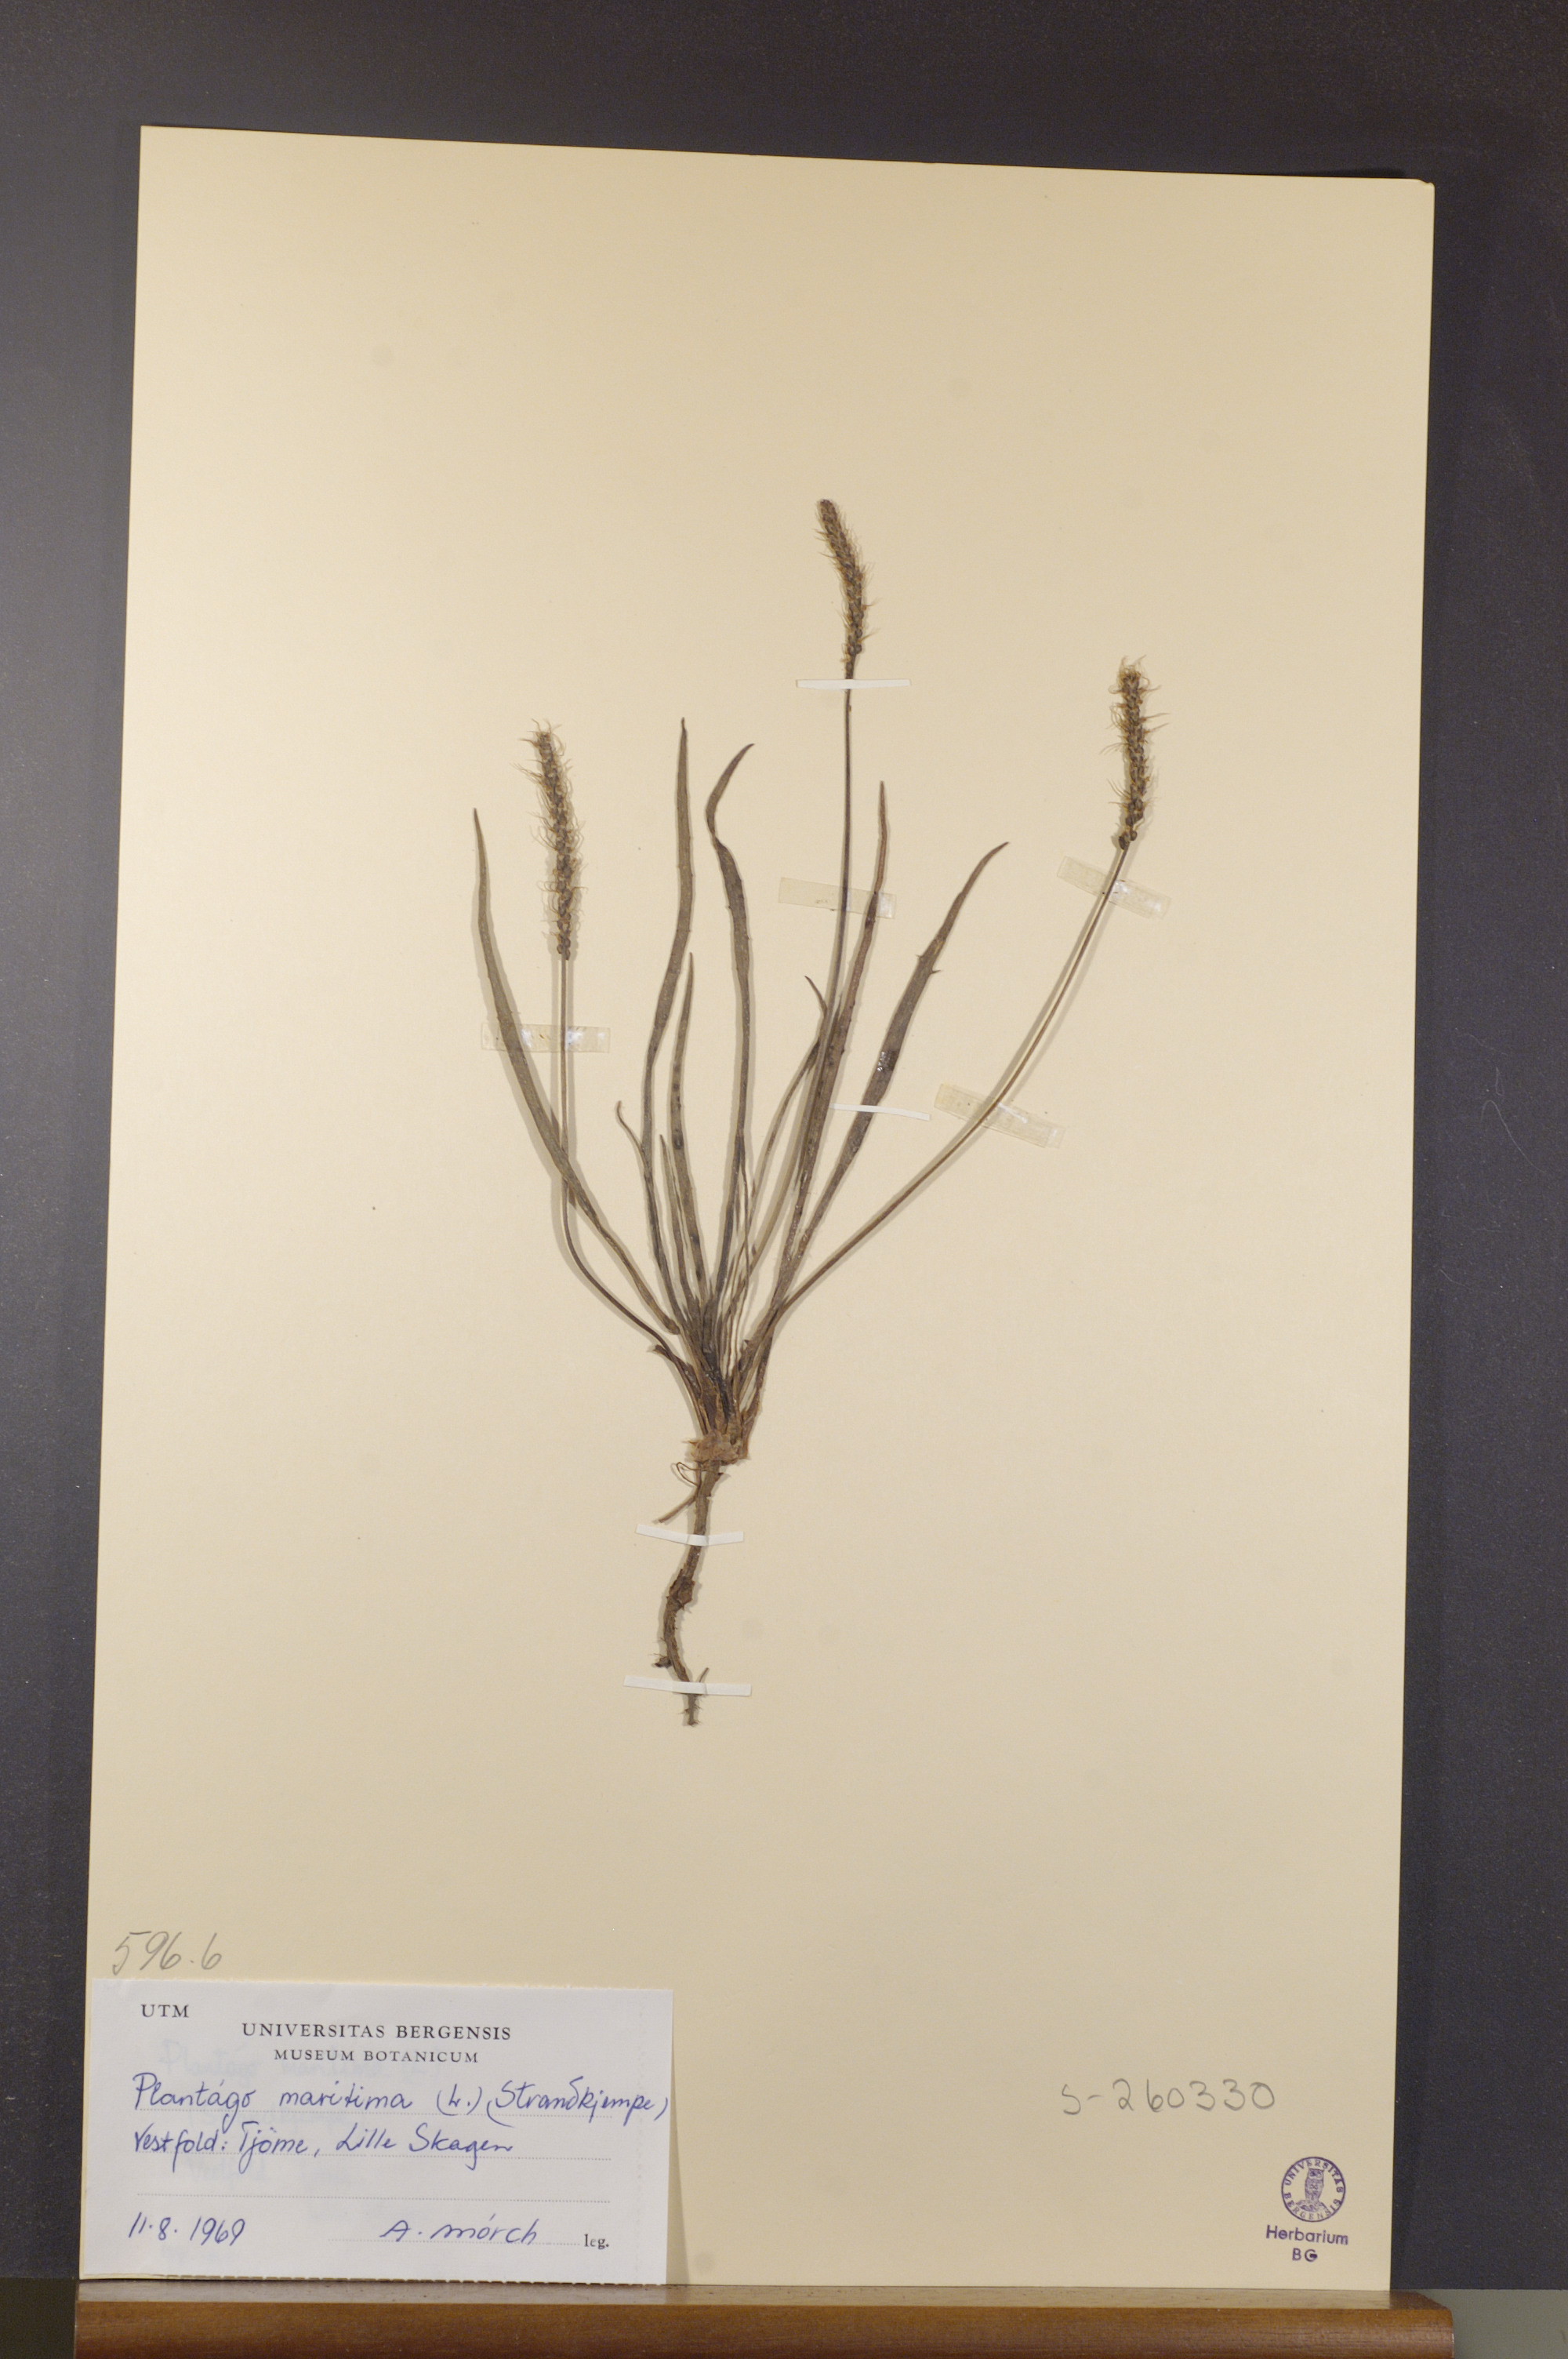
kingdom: Plantae
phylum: Tracheophyta
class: Magnoliopsida
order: Lamiales
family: Plantaginaceae
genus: Plantago
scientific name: Plantago maritima
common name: Sea plantain
